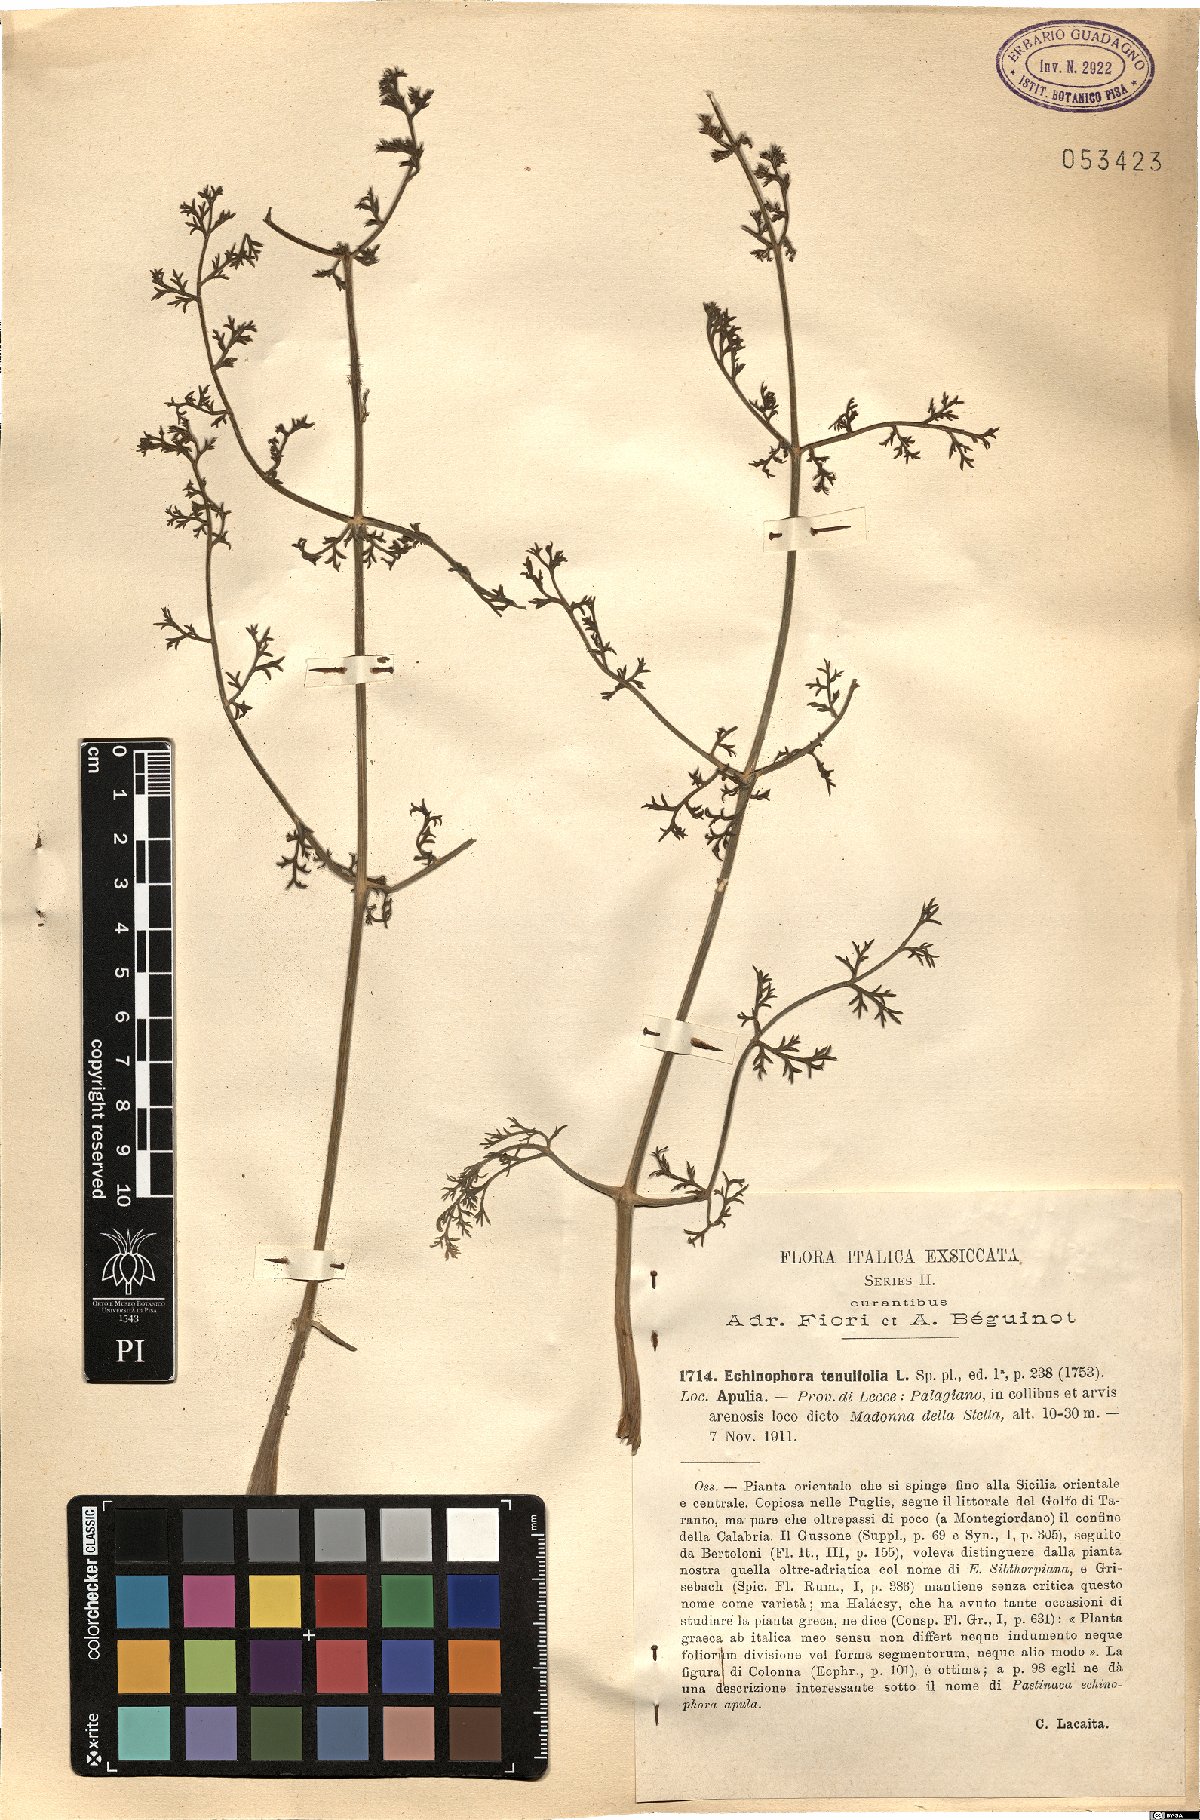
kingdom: Plantae
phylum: Tracheophyta
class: Magnoliopsida
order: Apiales
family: Apiaceae
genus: Echinophora
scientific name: Echinophora tenuifolia
